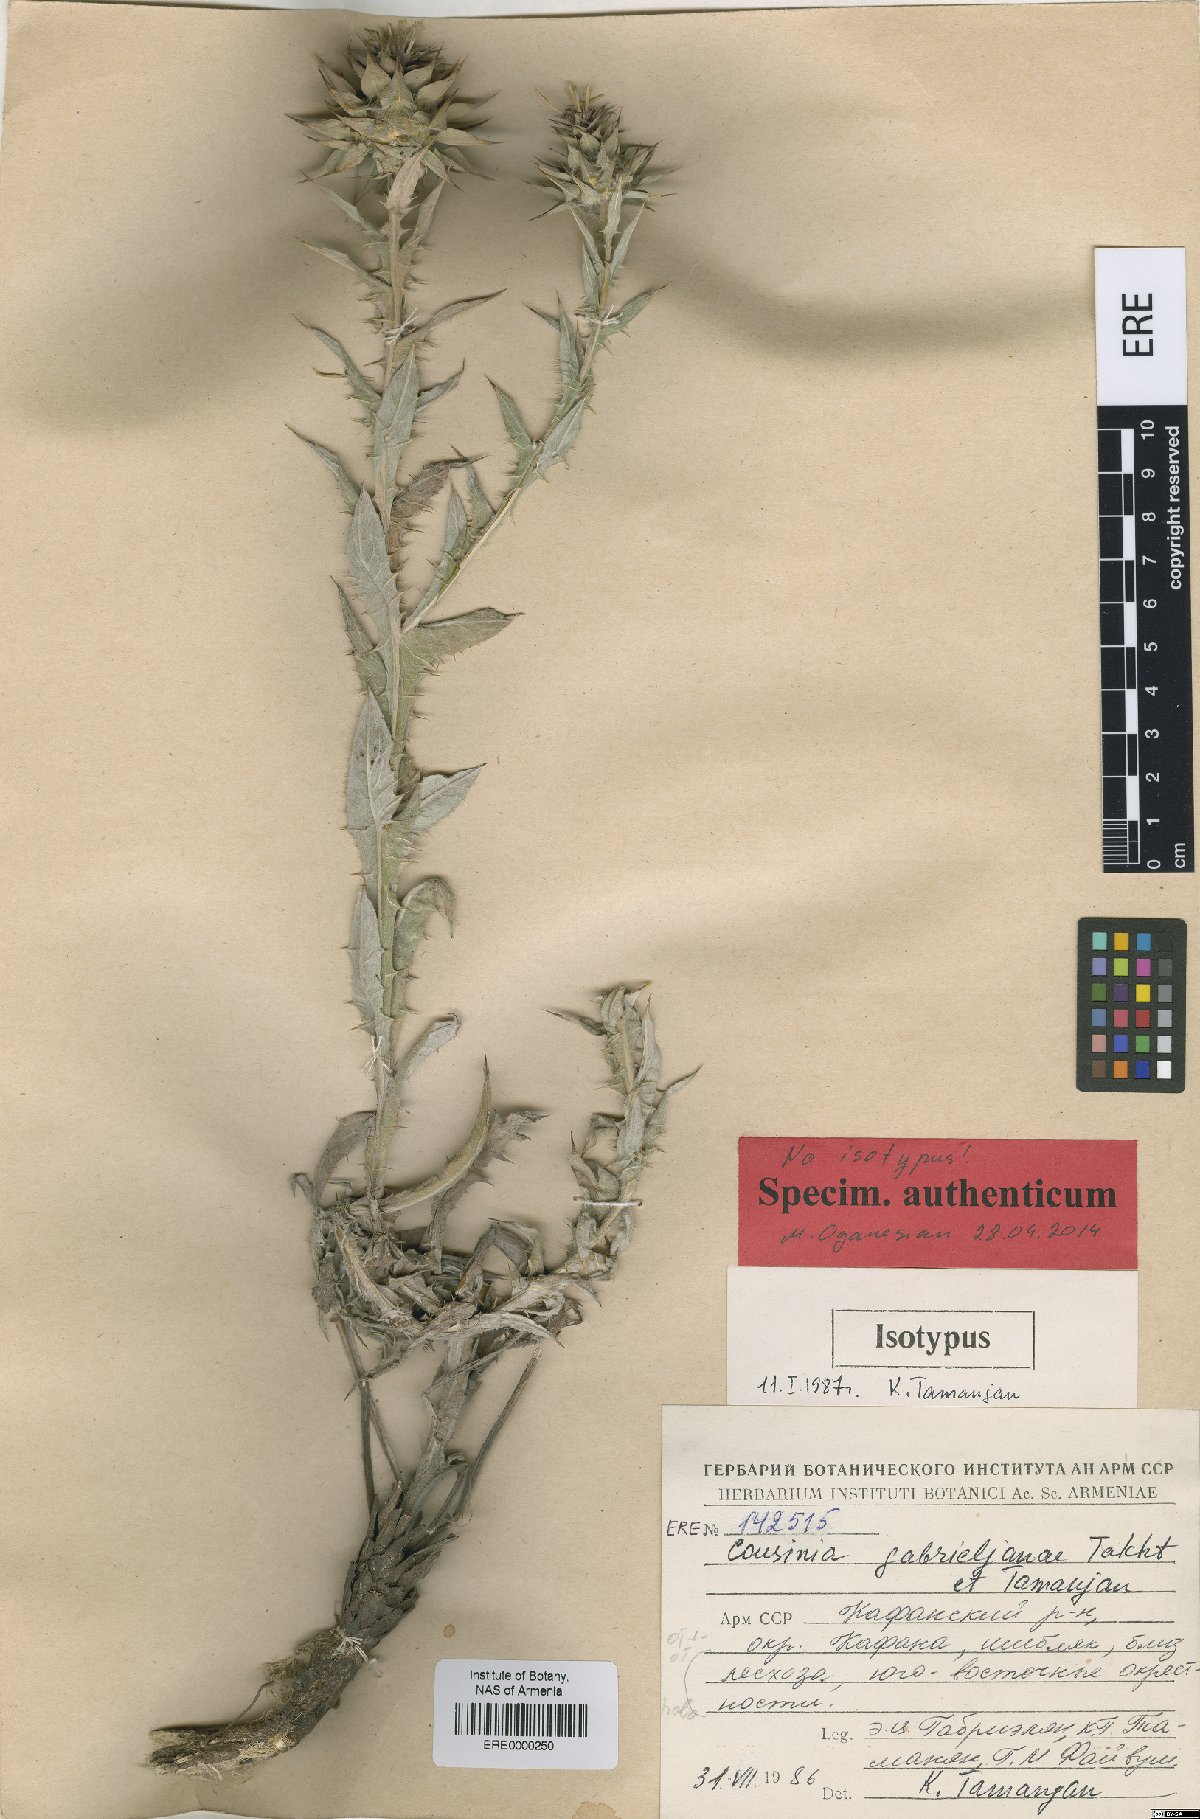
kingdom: Plantae
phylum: Tracheophyta
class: Magnoliopsida
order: Asterales
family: Asteraceae
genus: Cousinia
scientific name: Cousinia macrocephala
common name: Macrocephalous cousinia
